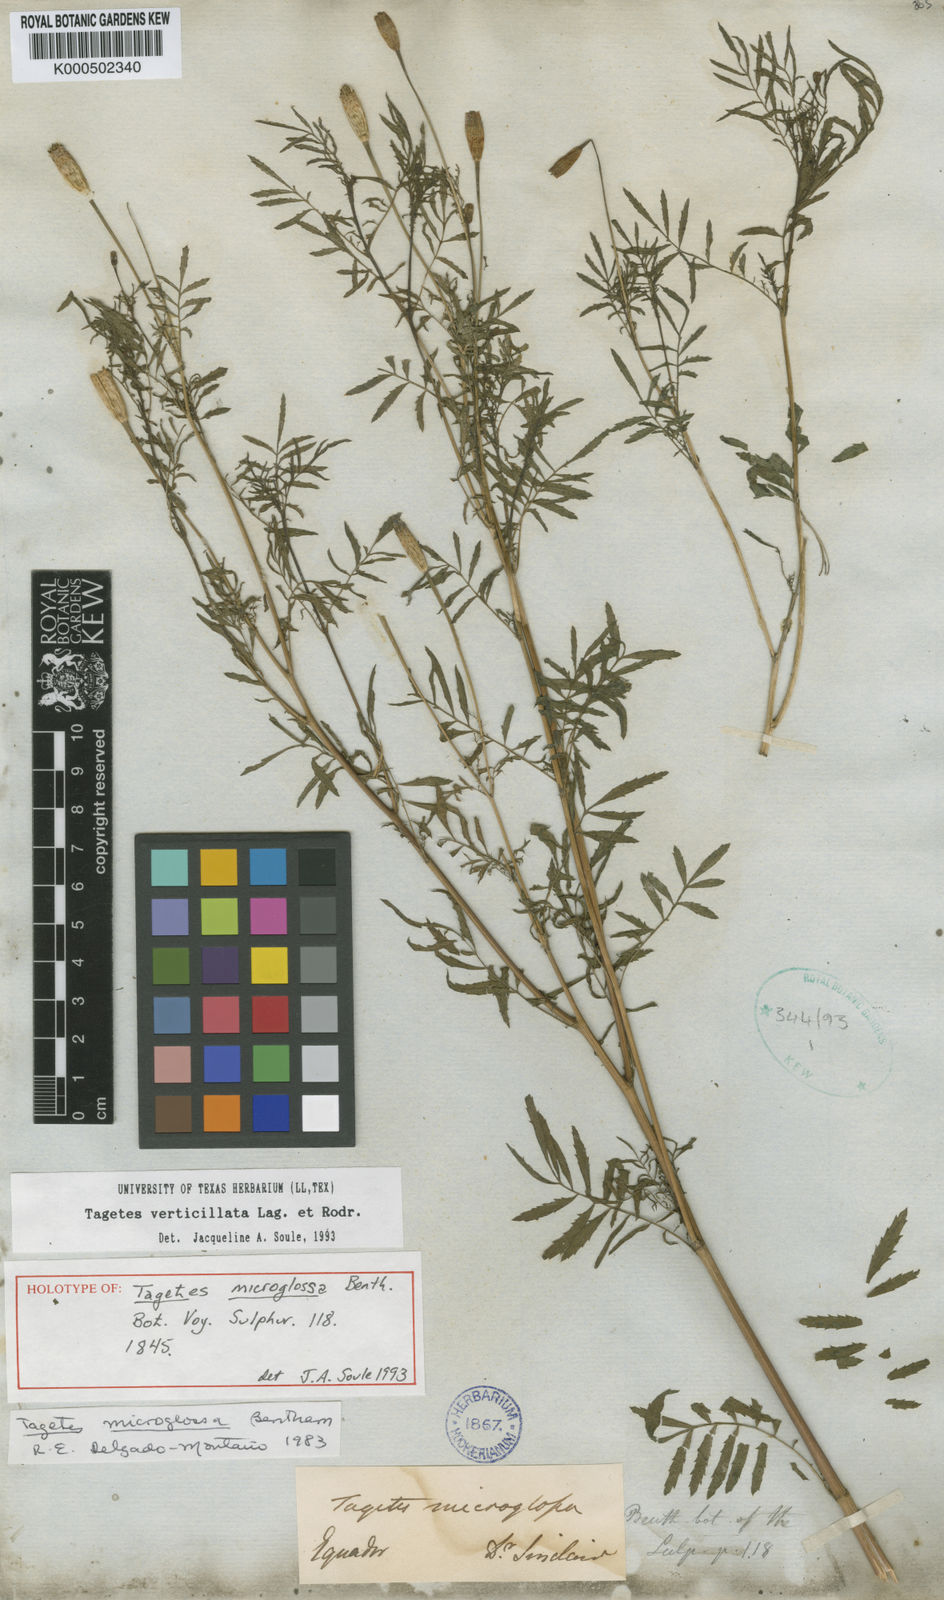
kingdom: Plantae
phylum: Tracheophyta
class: Magnoliopsida
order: Asterales
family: Asteraceae
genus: Tagetes
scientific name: Tagetes tenuifolia
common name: Signet marigold
